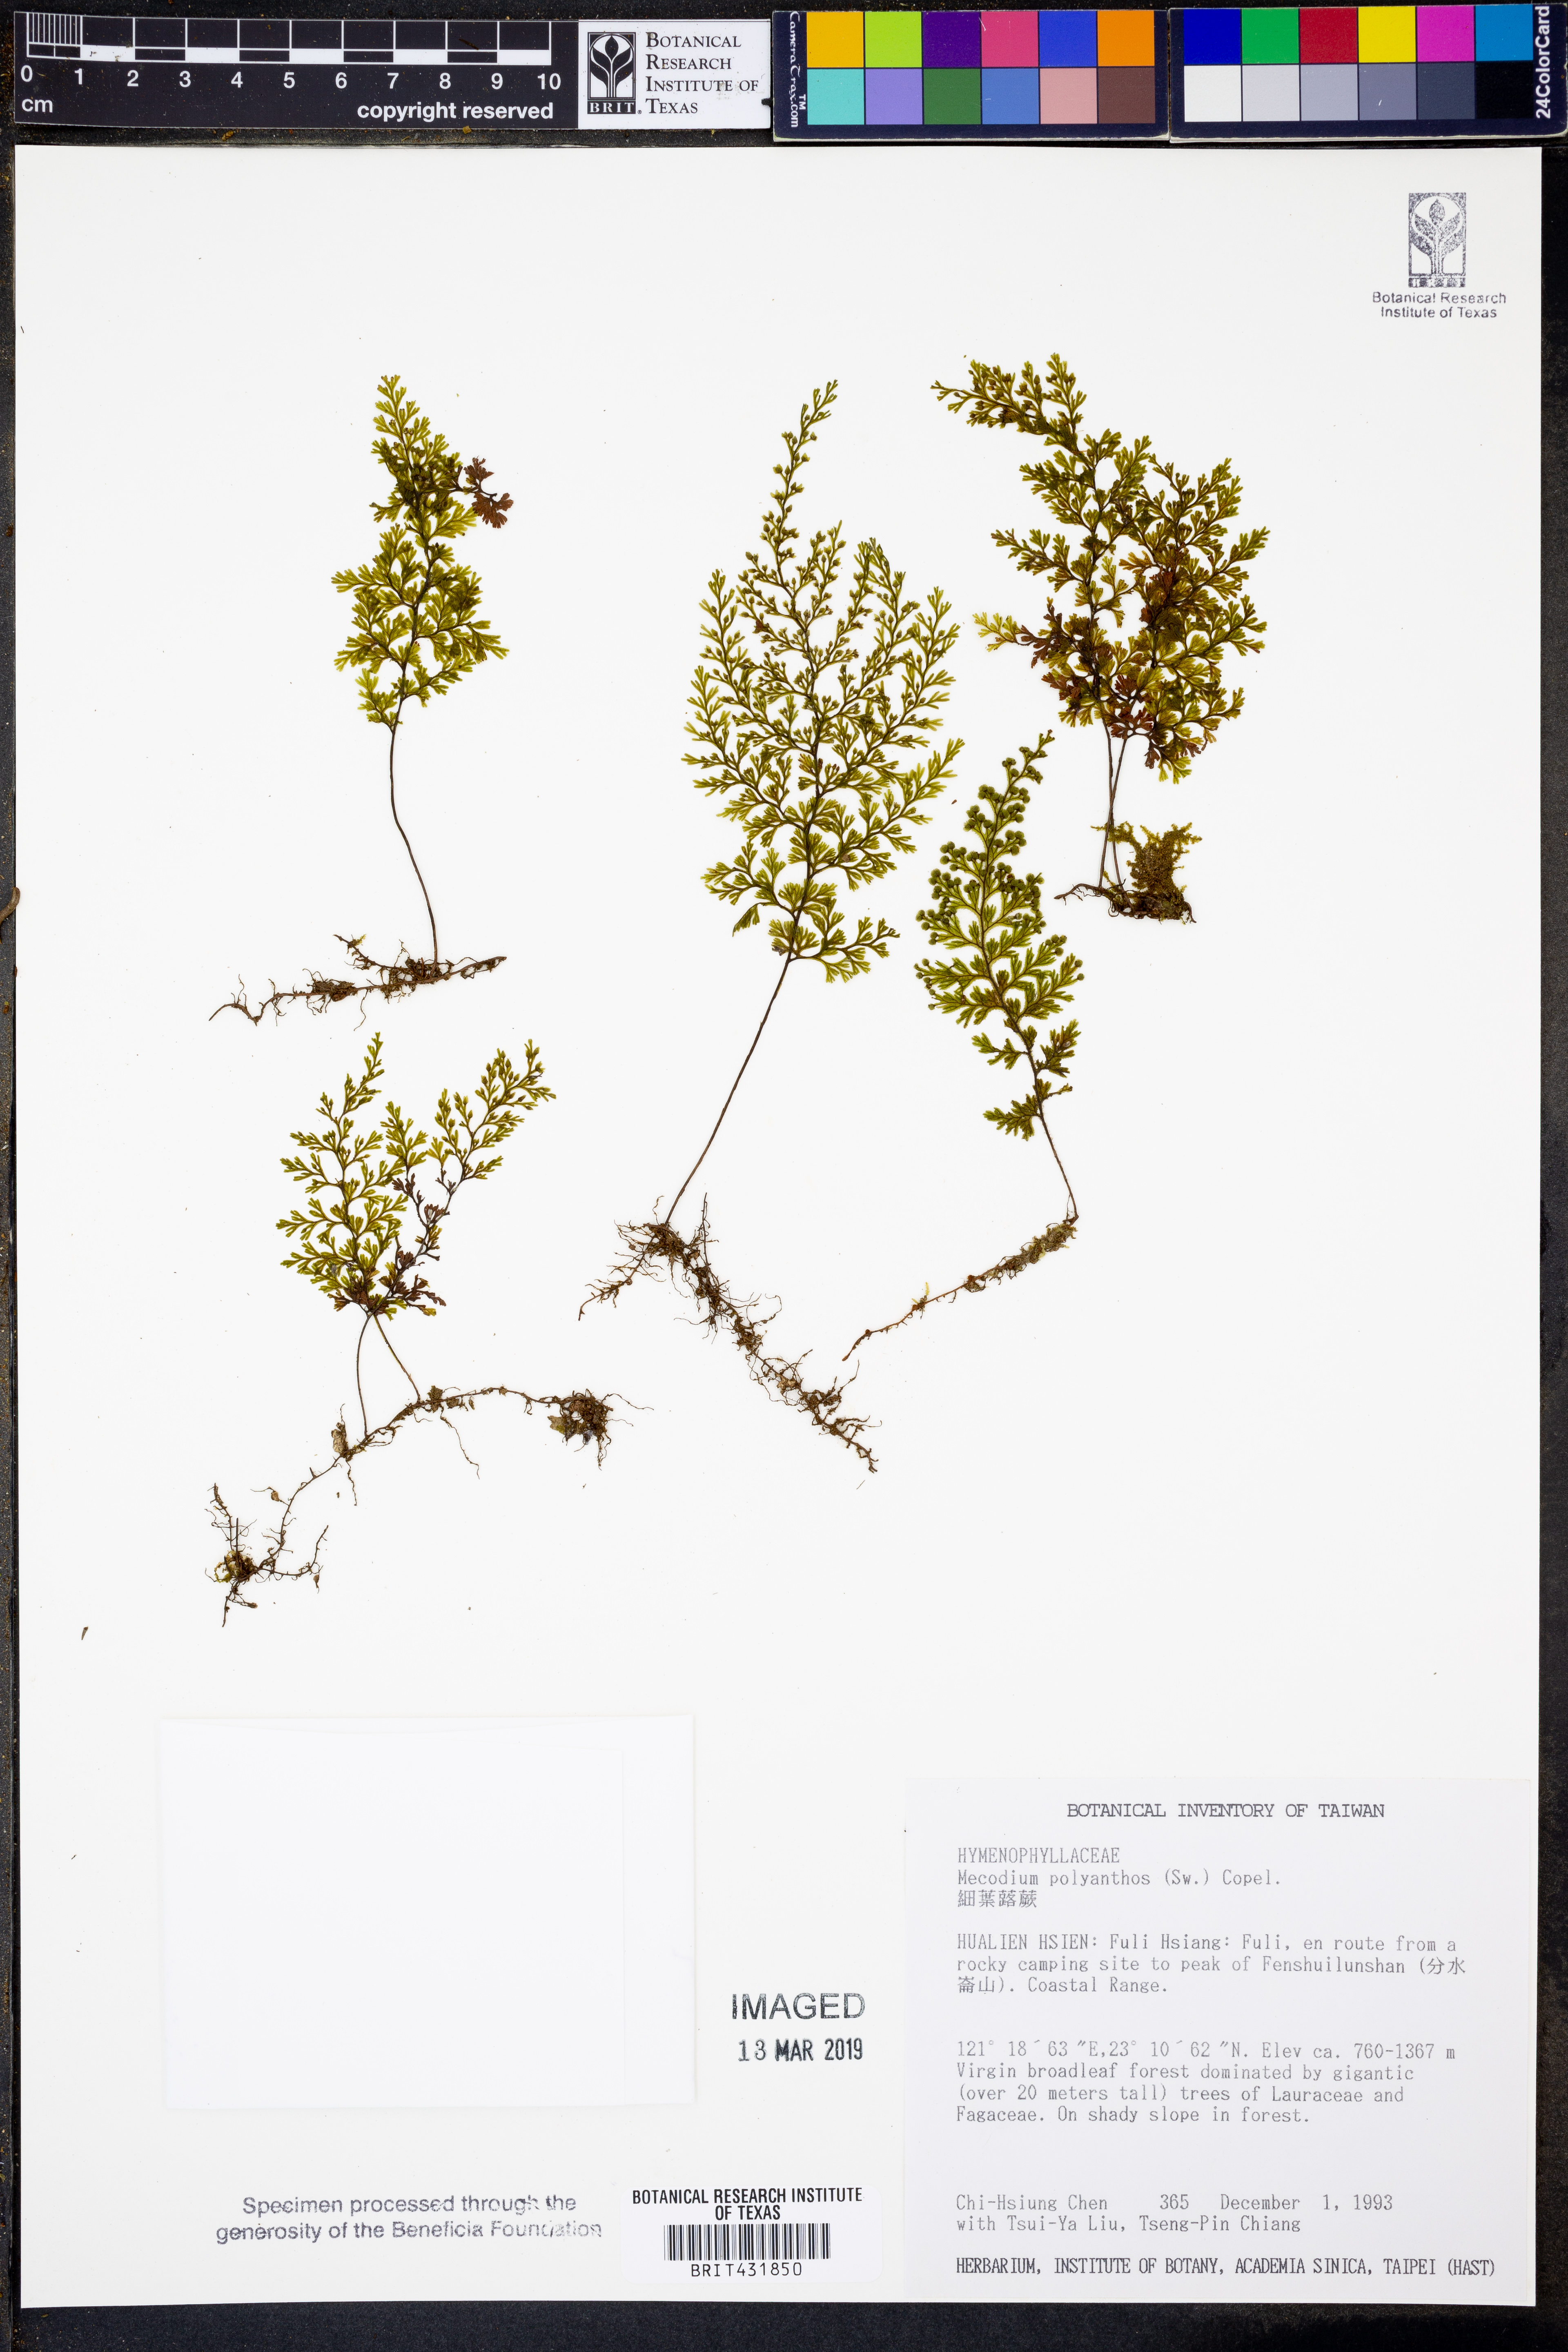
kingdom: Plantae
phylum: Tracheophyta
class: Polypodiopsida
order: Hymenophyllales
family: Hymenophyllaceae
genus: Hymenophyllum
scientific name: Hymenophyllum polyanthos
